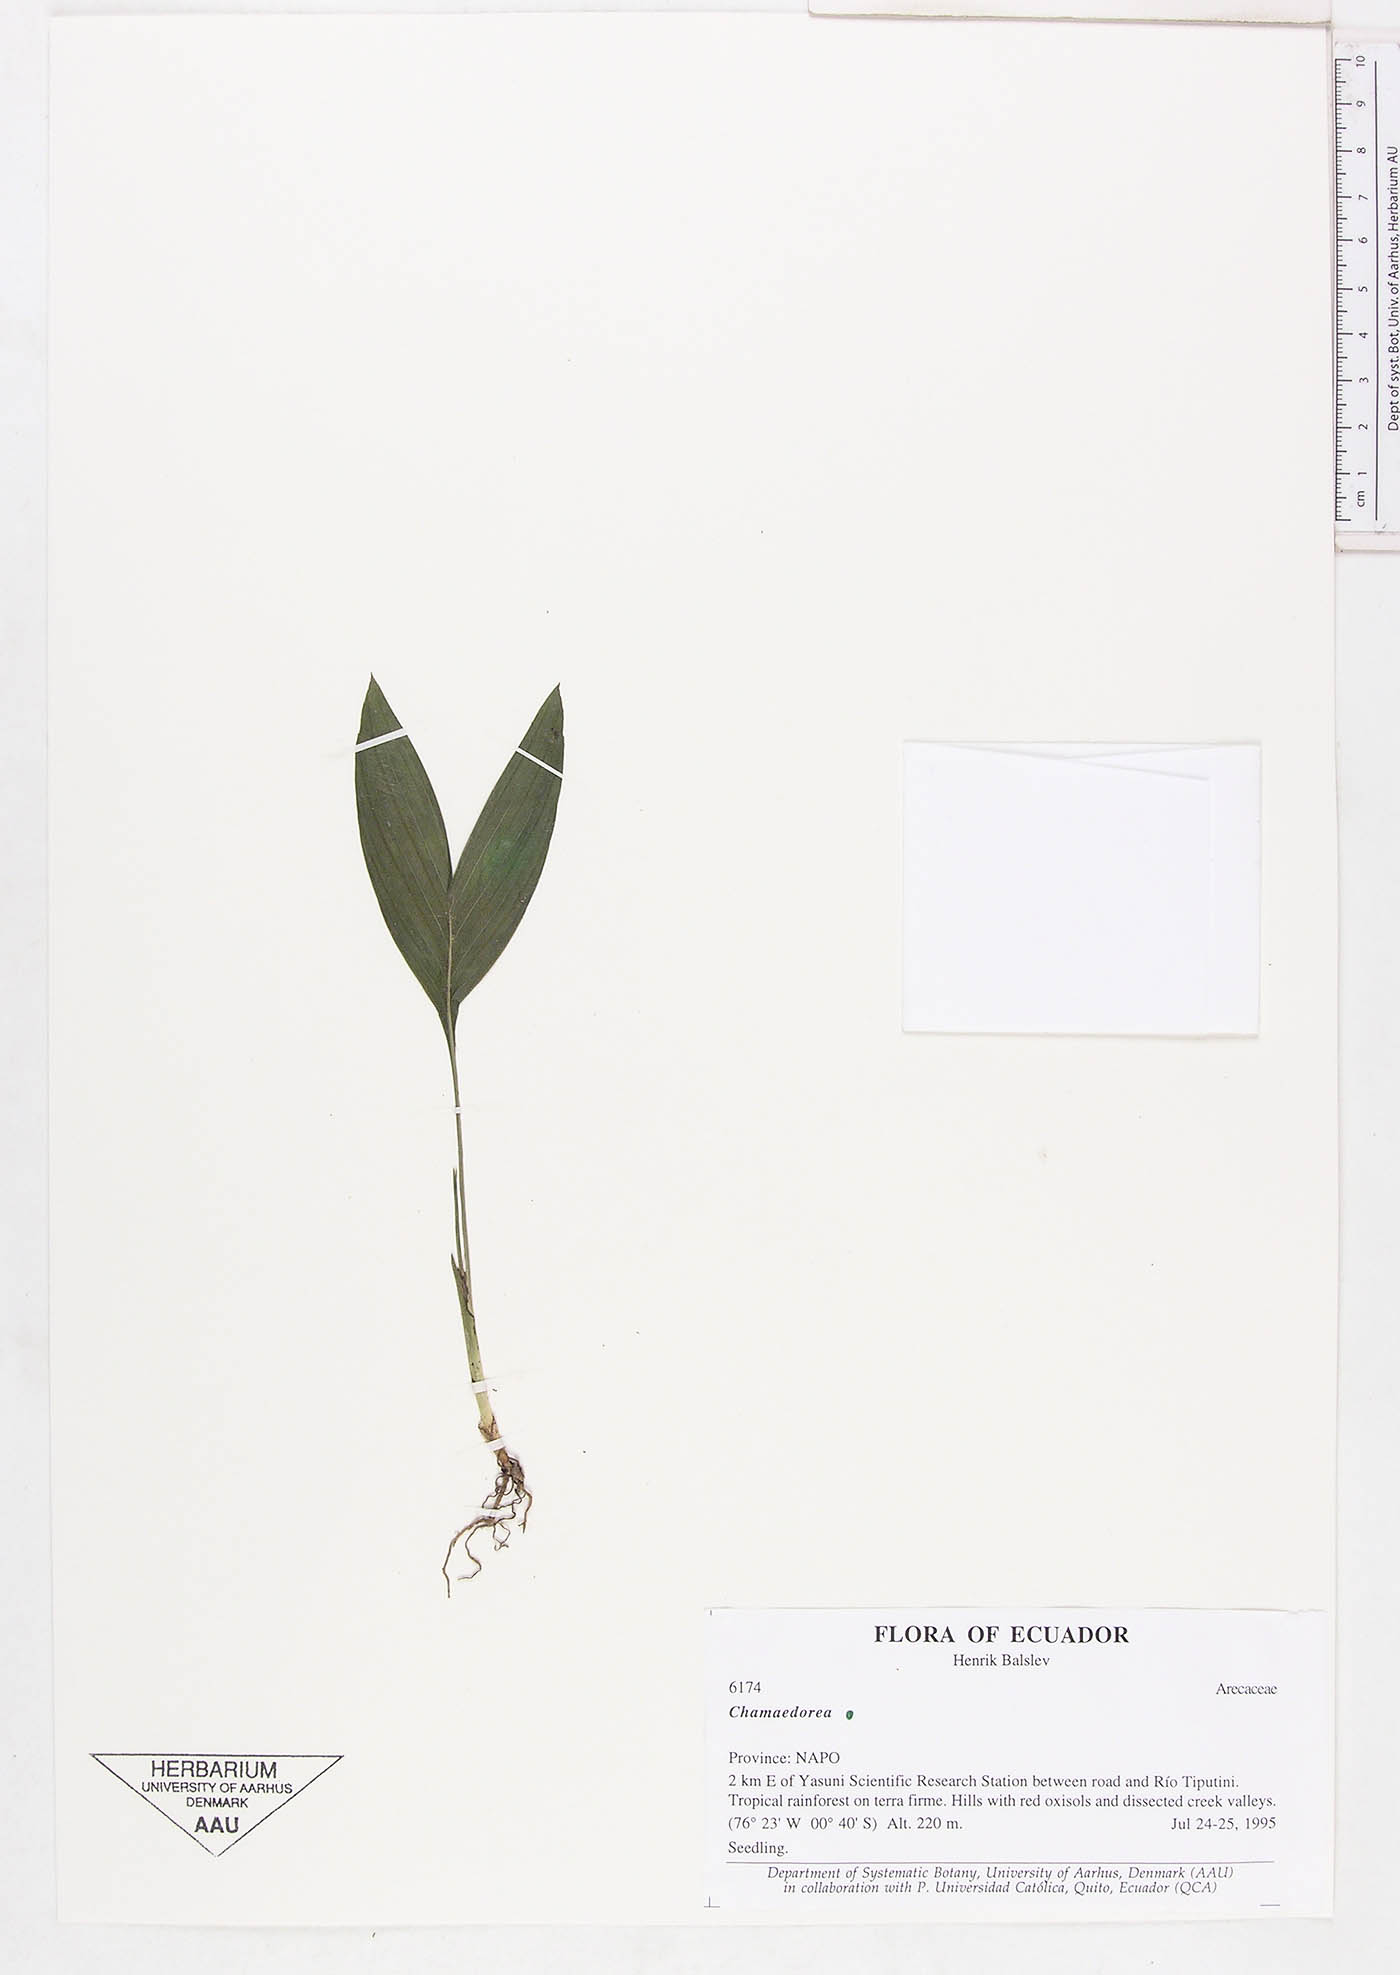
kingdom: Plantae
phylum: Tracheophyta
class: Liliopsida
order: Arecales
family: Arecaceae
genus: Chamaedorea
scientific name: Chamaedorea
